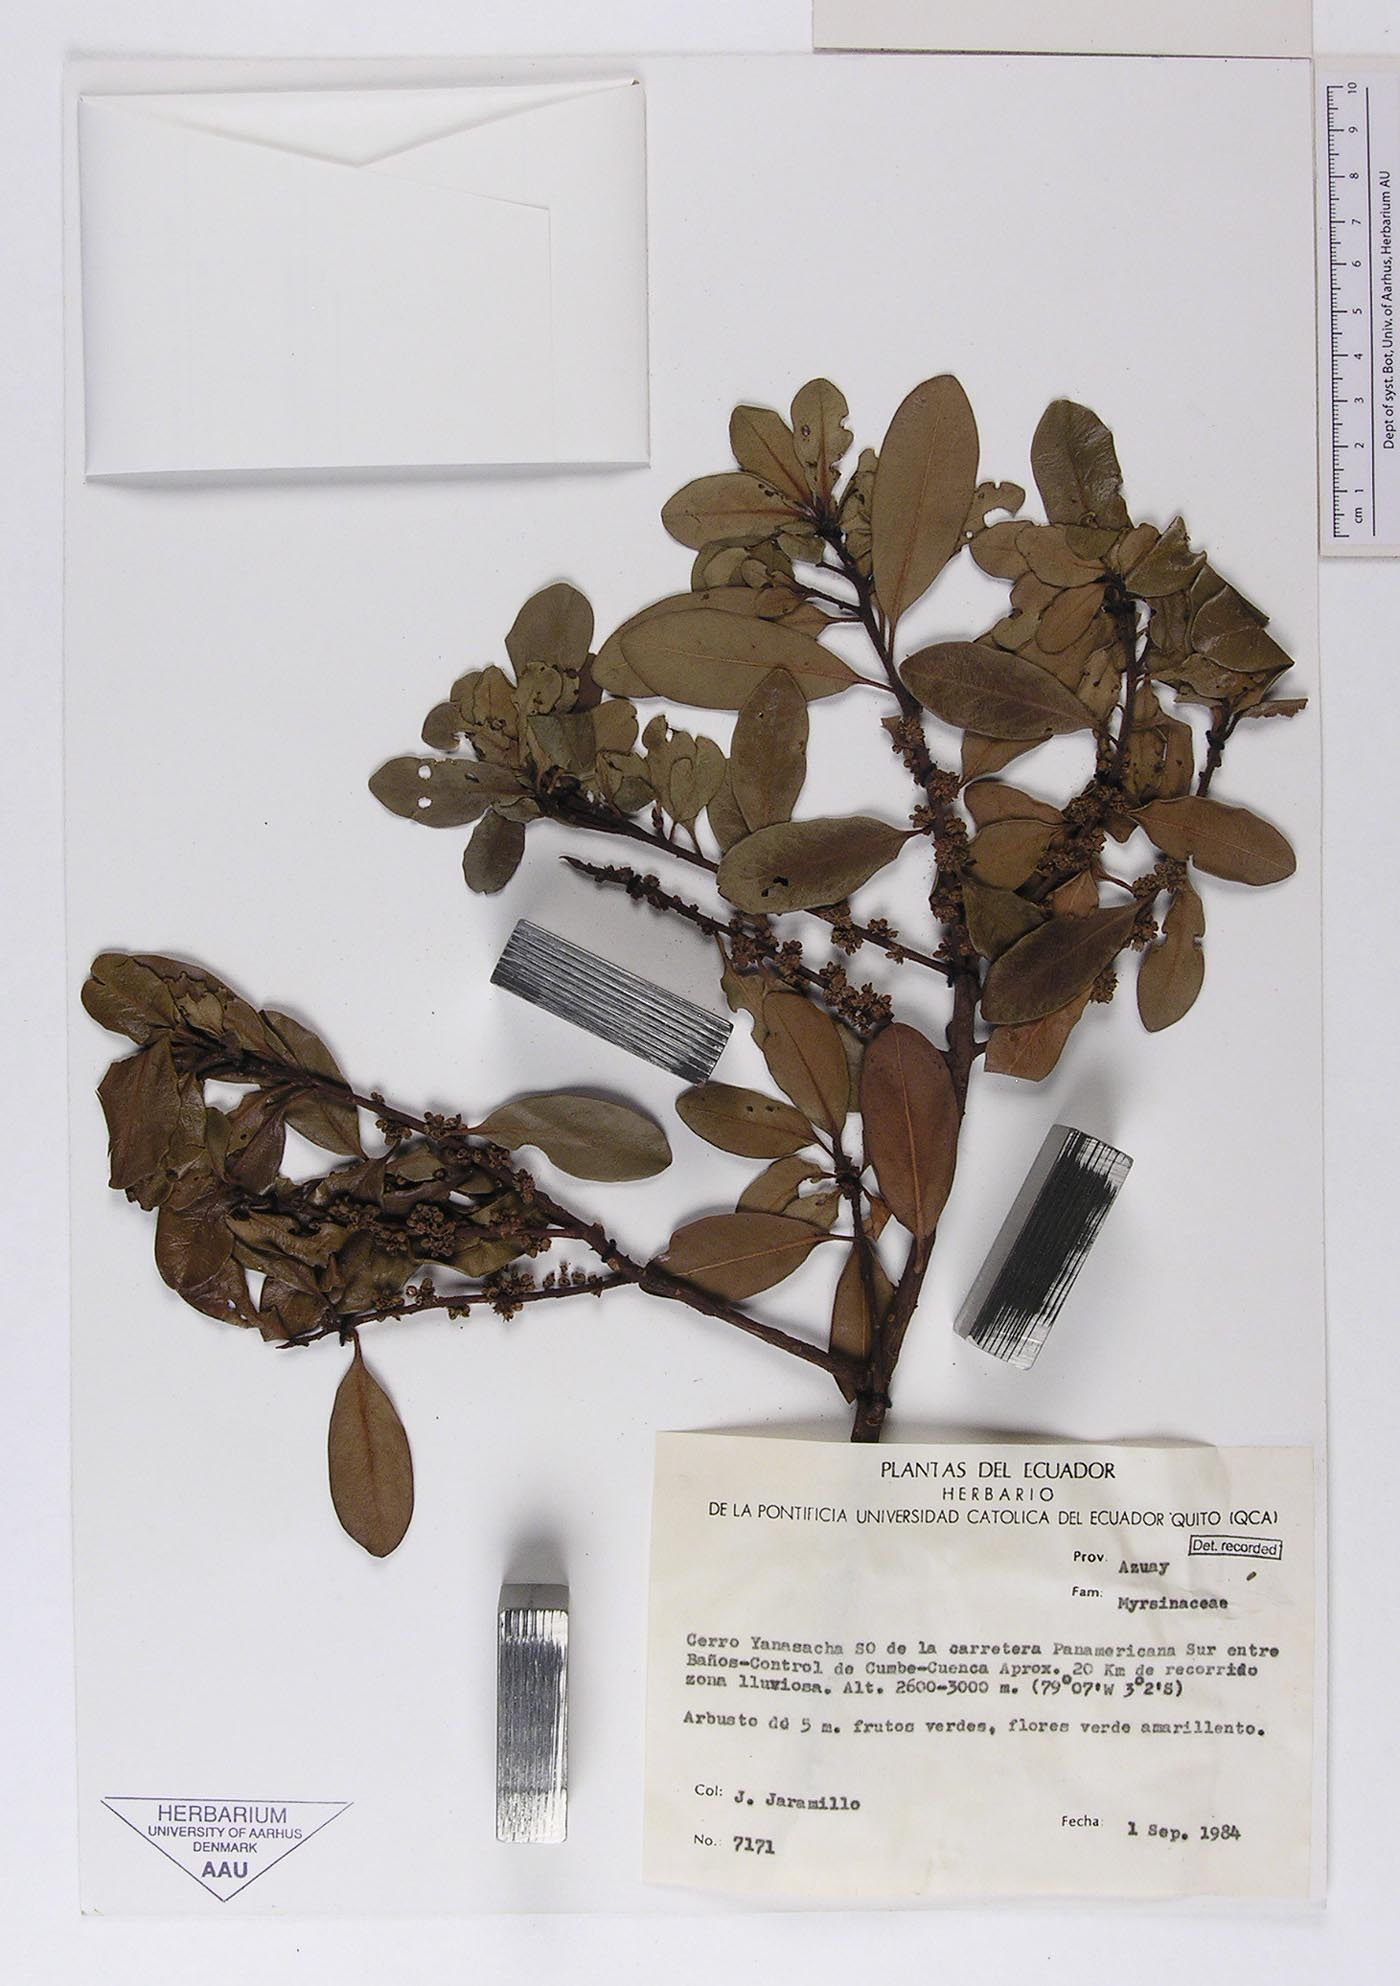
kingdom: Plantae
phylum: Tracheophyta
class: Magnoliopsida
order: Ericales
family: Primulaceae
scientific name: Primulaceae
